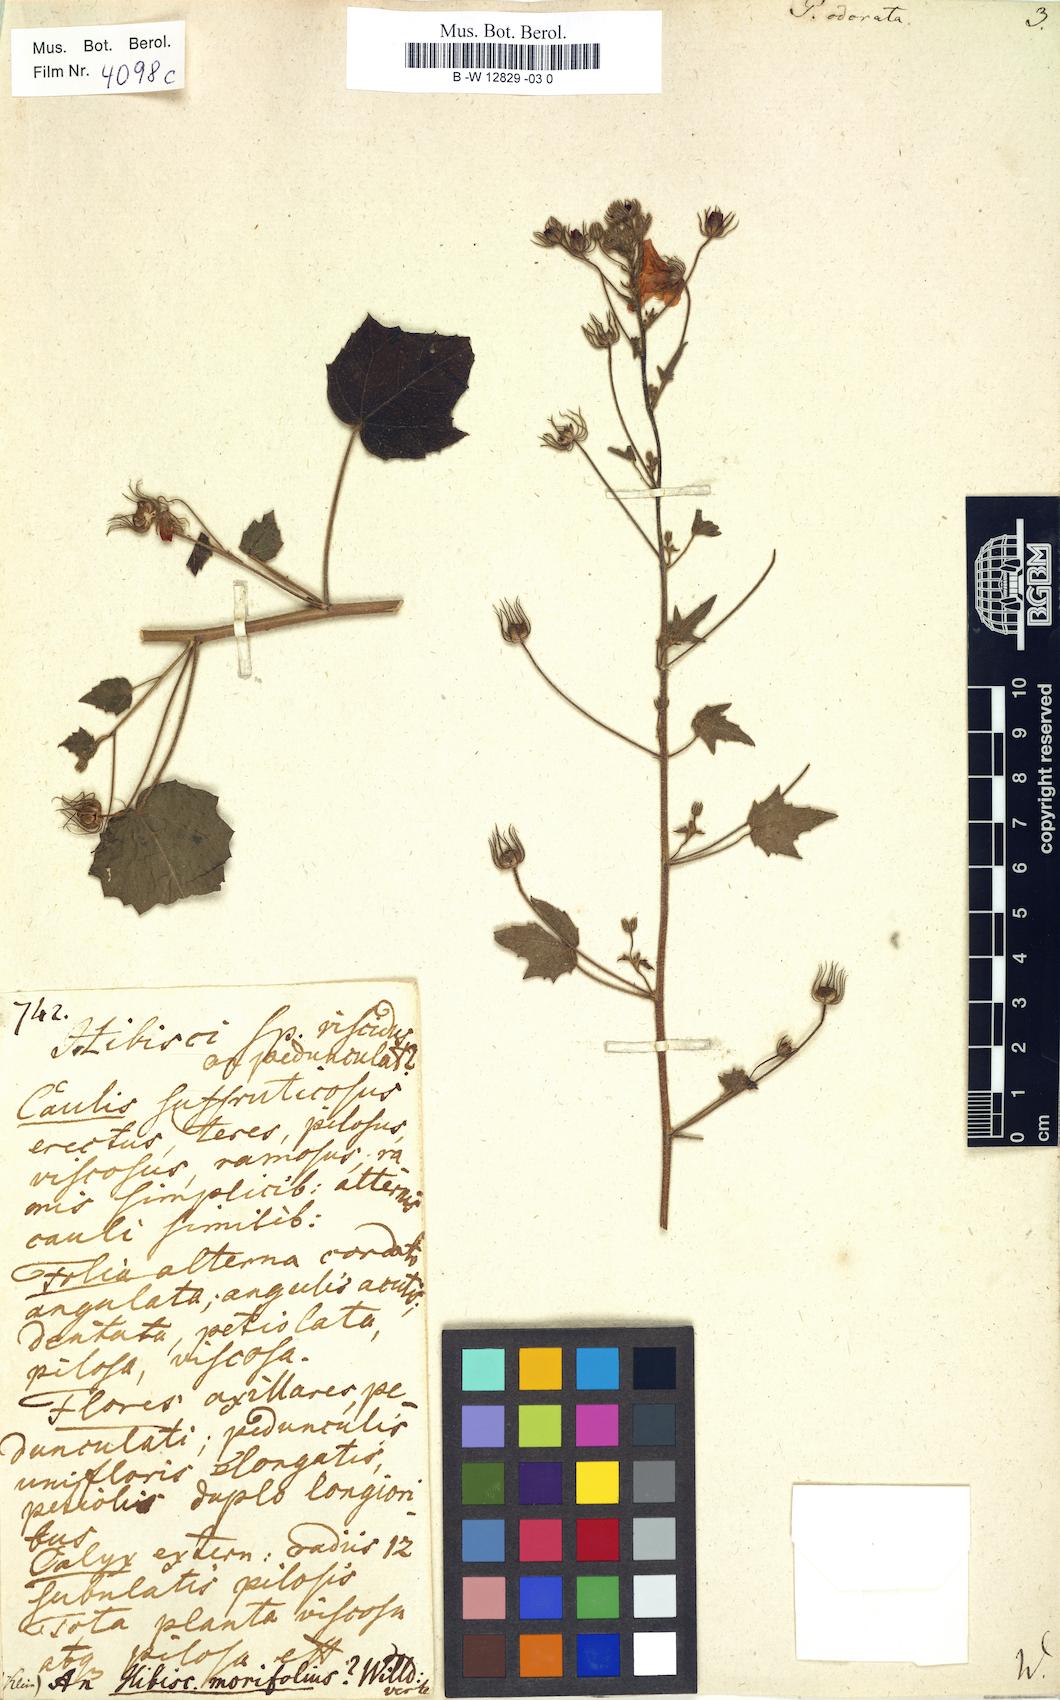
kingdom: Plantae
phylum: Tracheophyta
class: Magnoliopsida
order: Malvales
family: Malvaceae
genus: Pavonia
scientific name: Pavonia zeylonica
